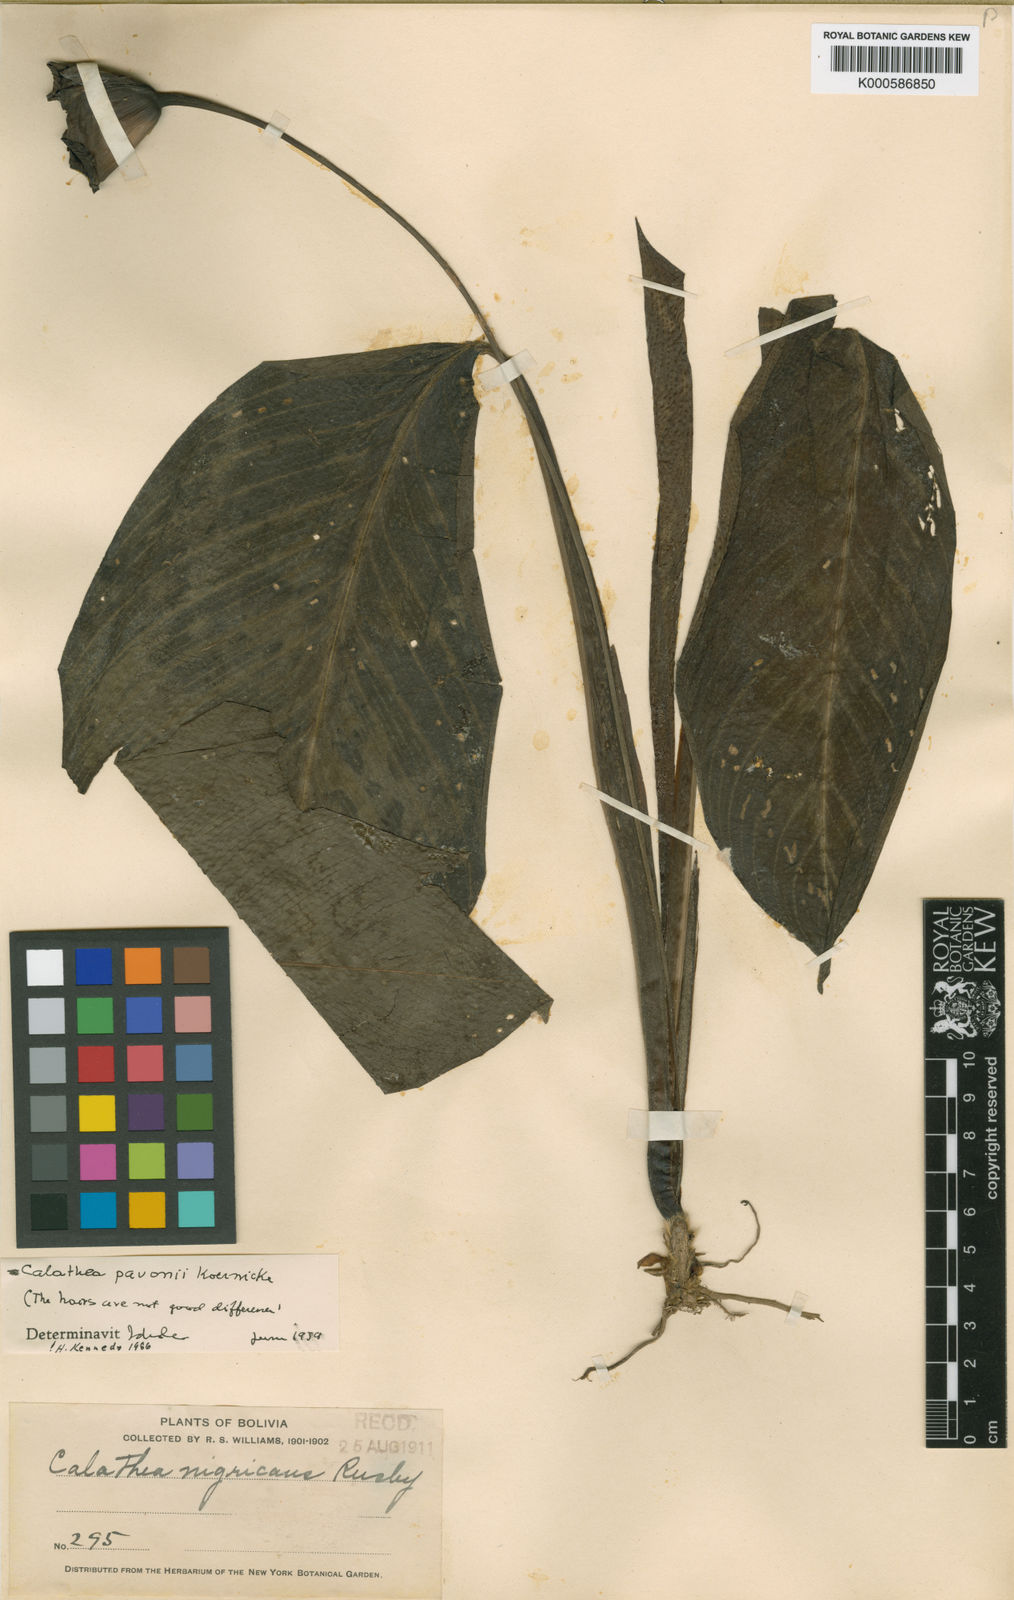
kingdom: Plantae
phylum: Tracheophyta
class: Liliopsida
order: Zingiberales
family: Marantaceae
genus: Goeppertia
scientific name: Goeppertia pavonii
